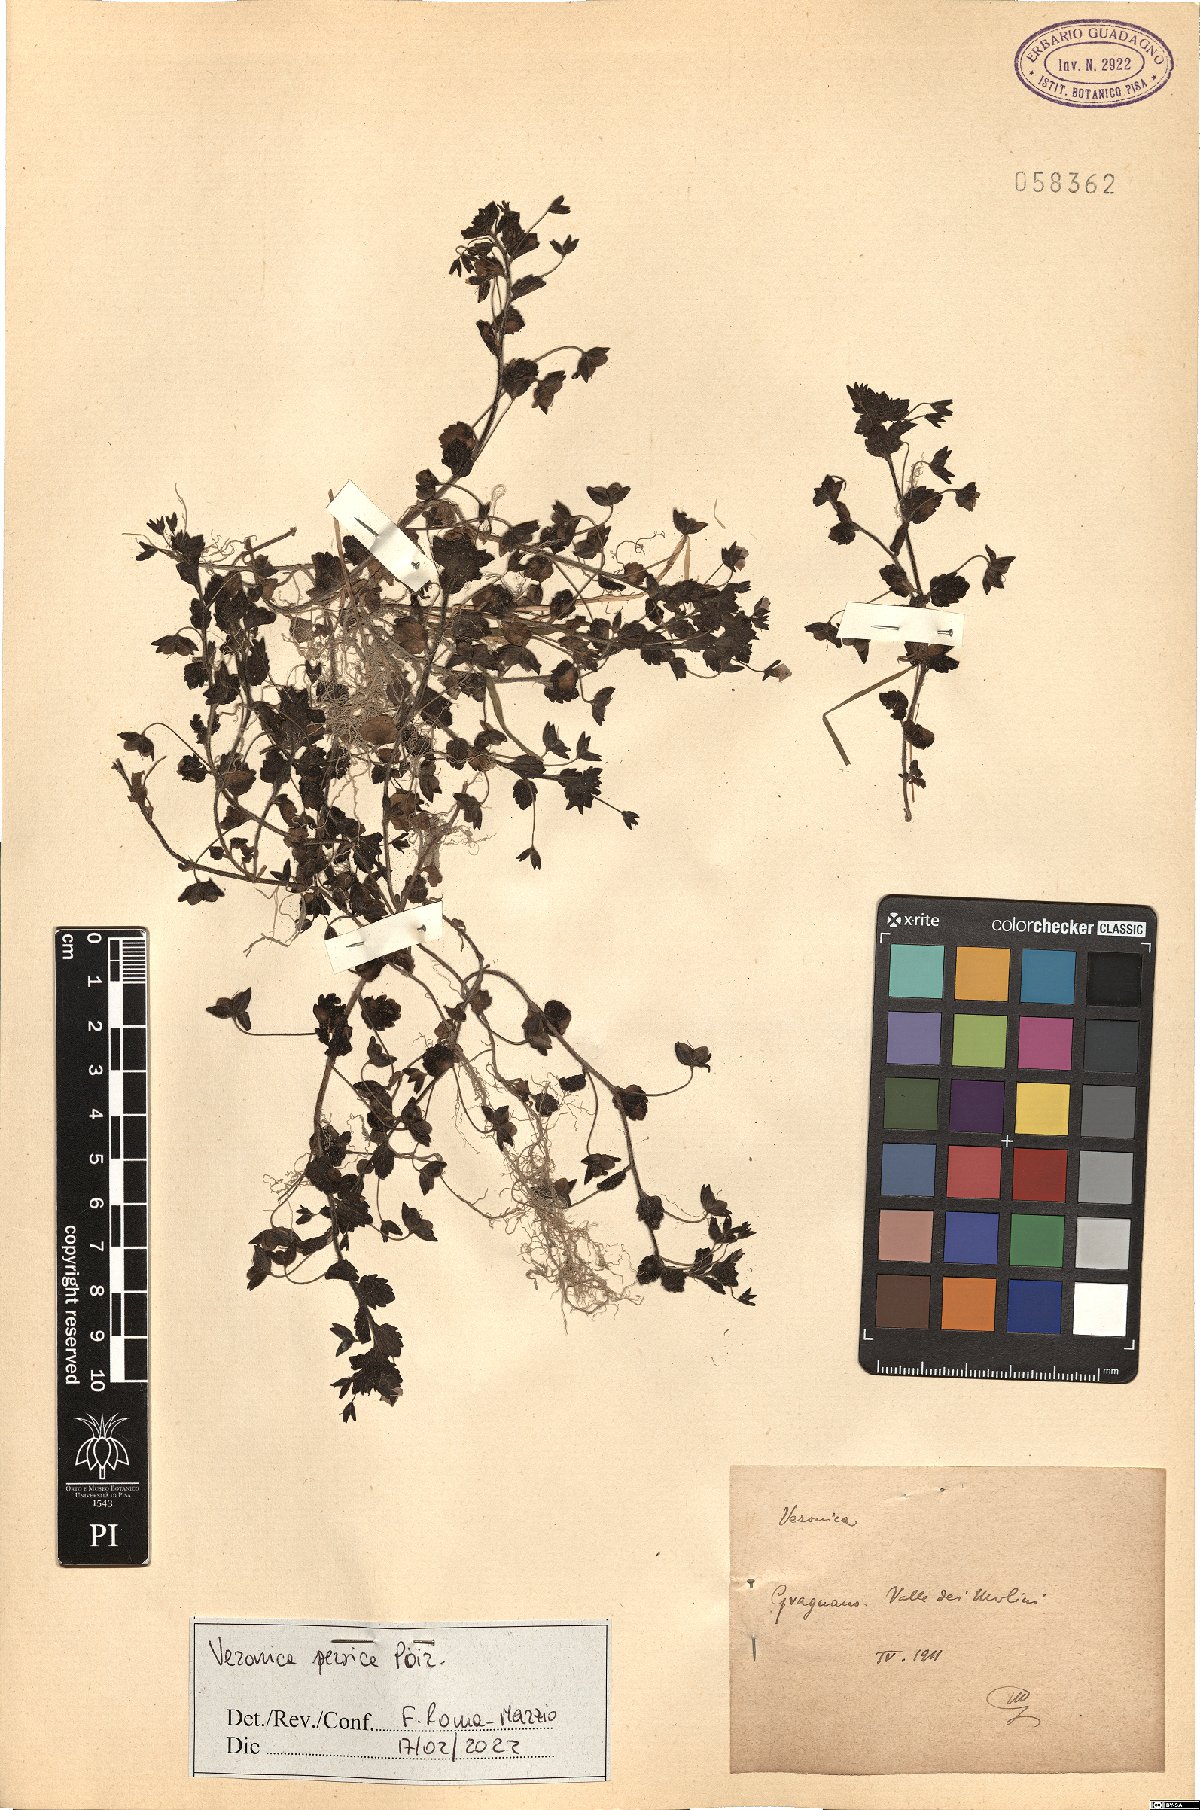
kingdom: Plantae
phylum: Tracheophyta
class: Magnoliopsida
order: Lamiales
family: Plantaginaceae
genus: Veronica
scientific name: Veronica persica
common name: Common field-speedwell
